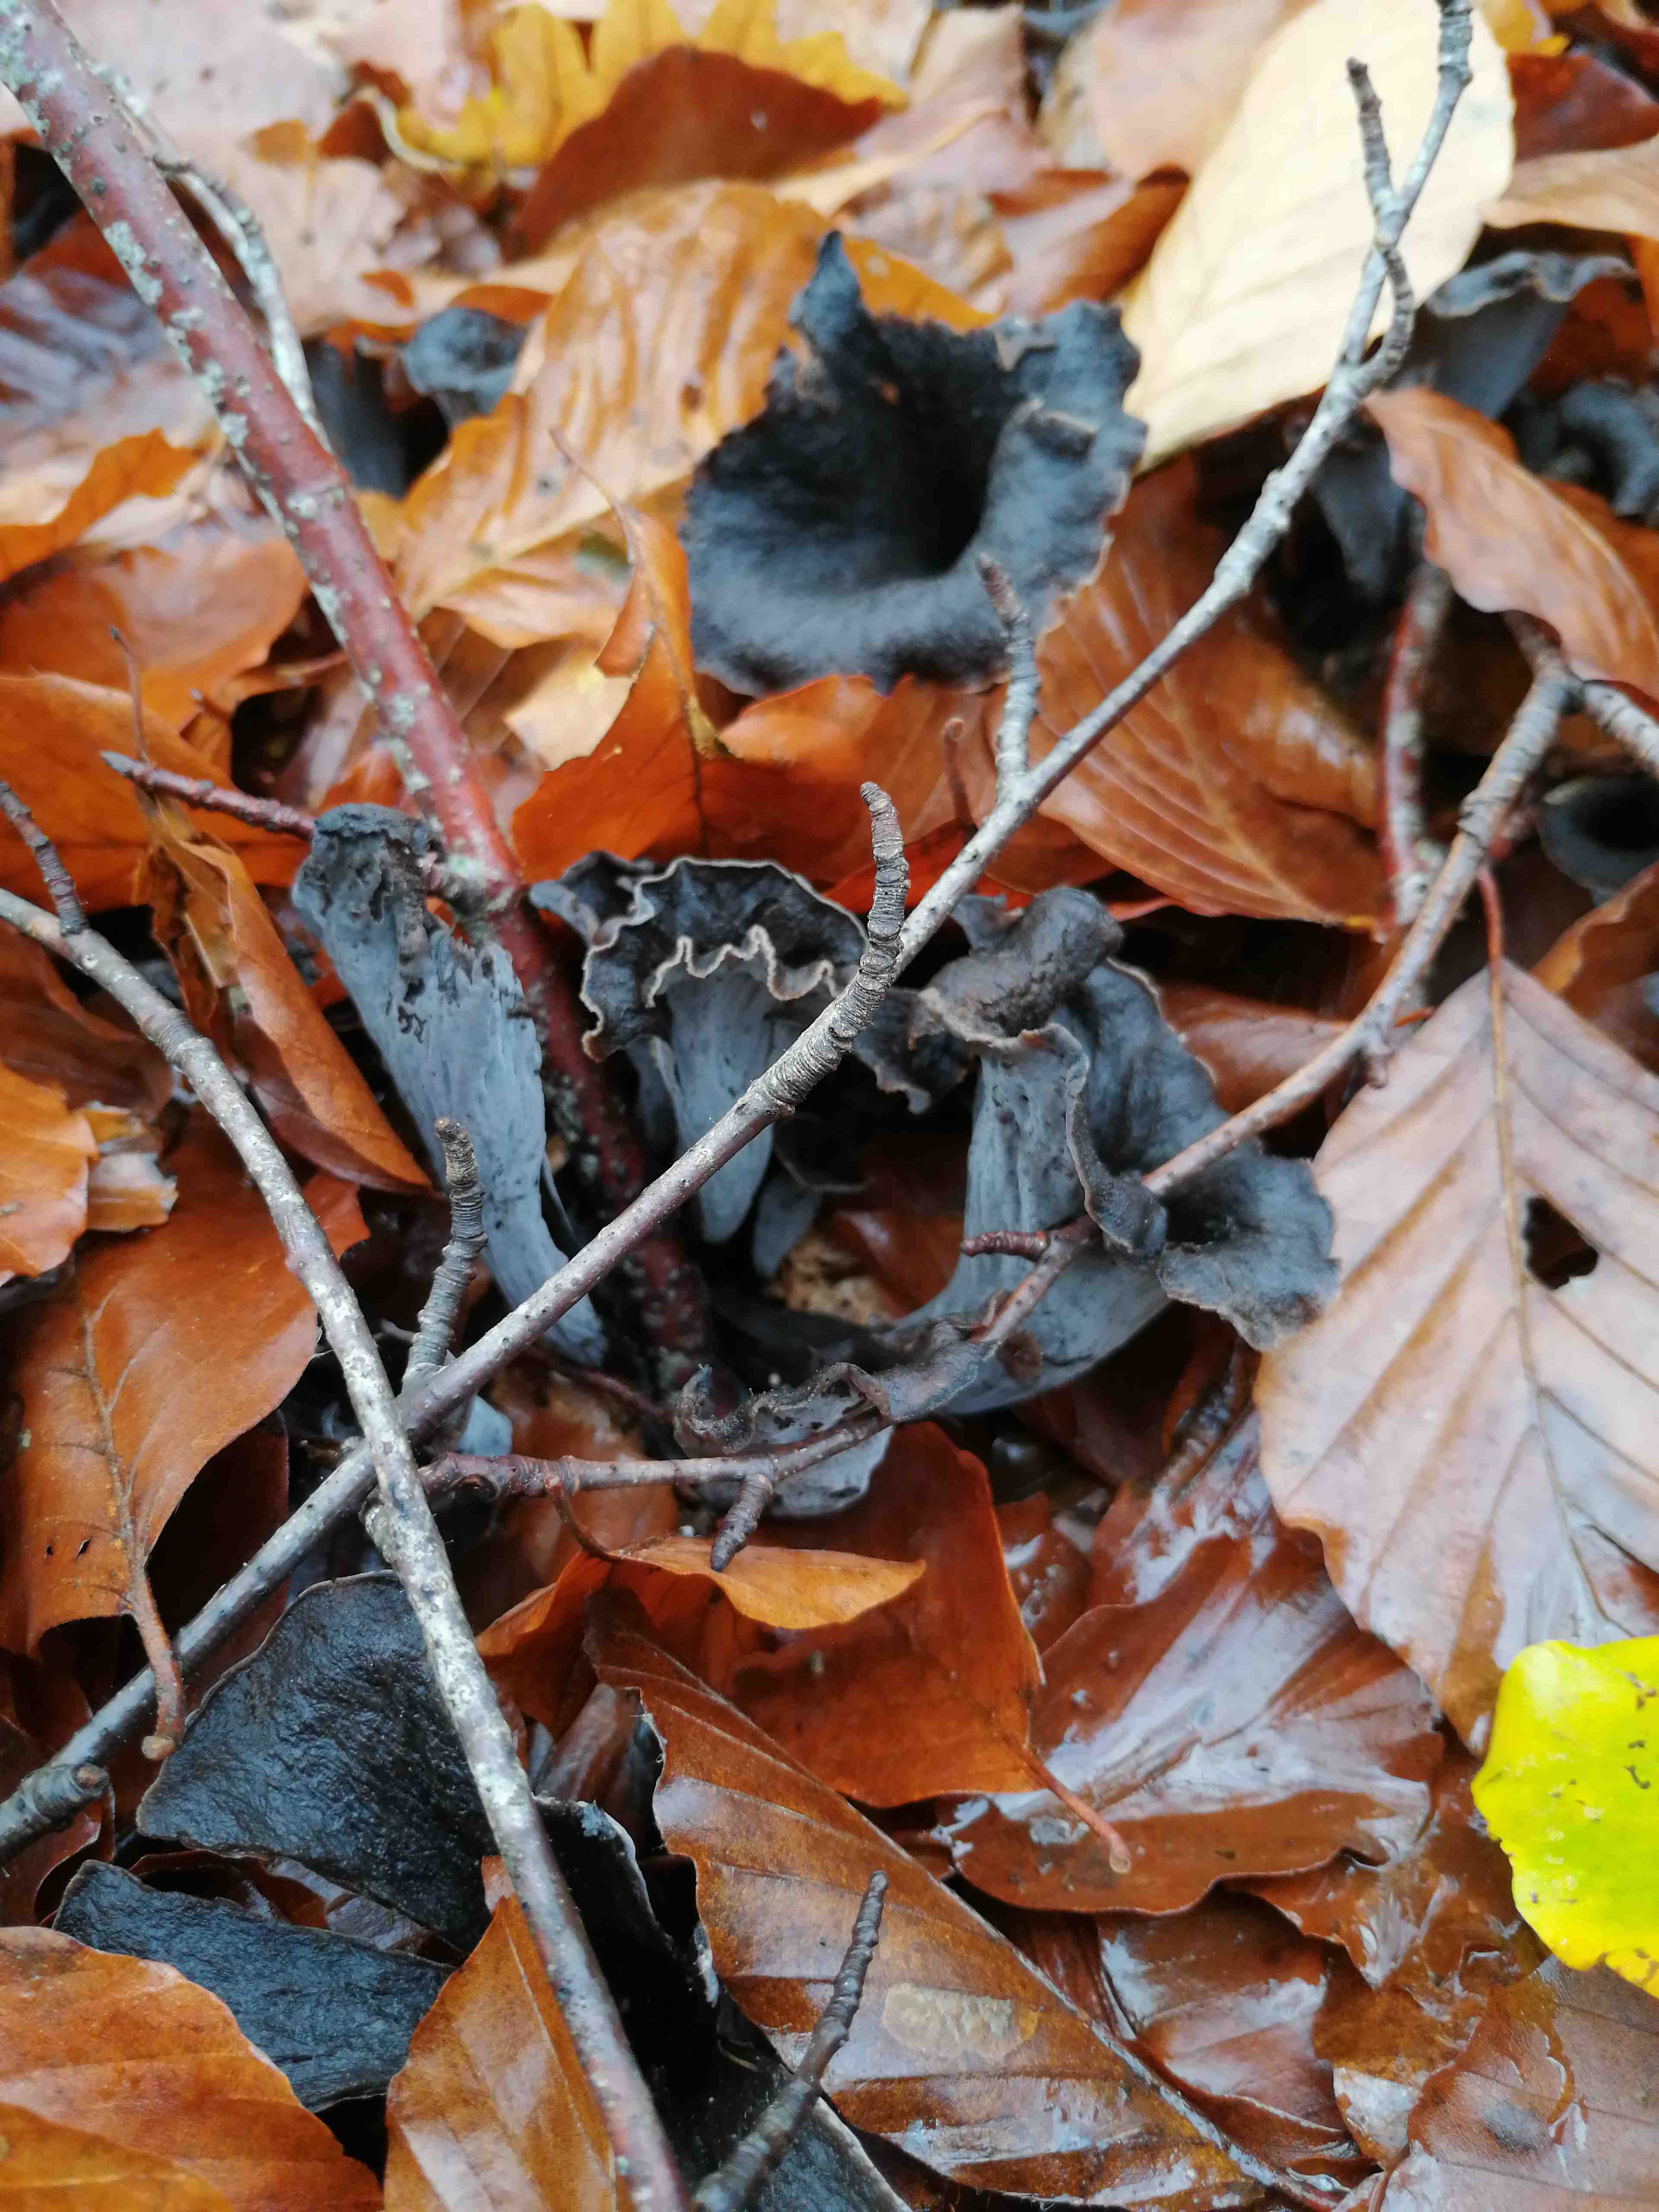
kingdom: Fungi
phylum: Basidiomycota
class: Agaricomycetes
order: Cantharellales
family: Hydnaceae
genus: Craterellus
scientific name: Craterellus cornucopioides
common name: trompetsvamp
